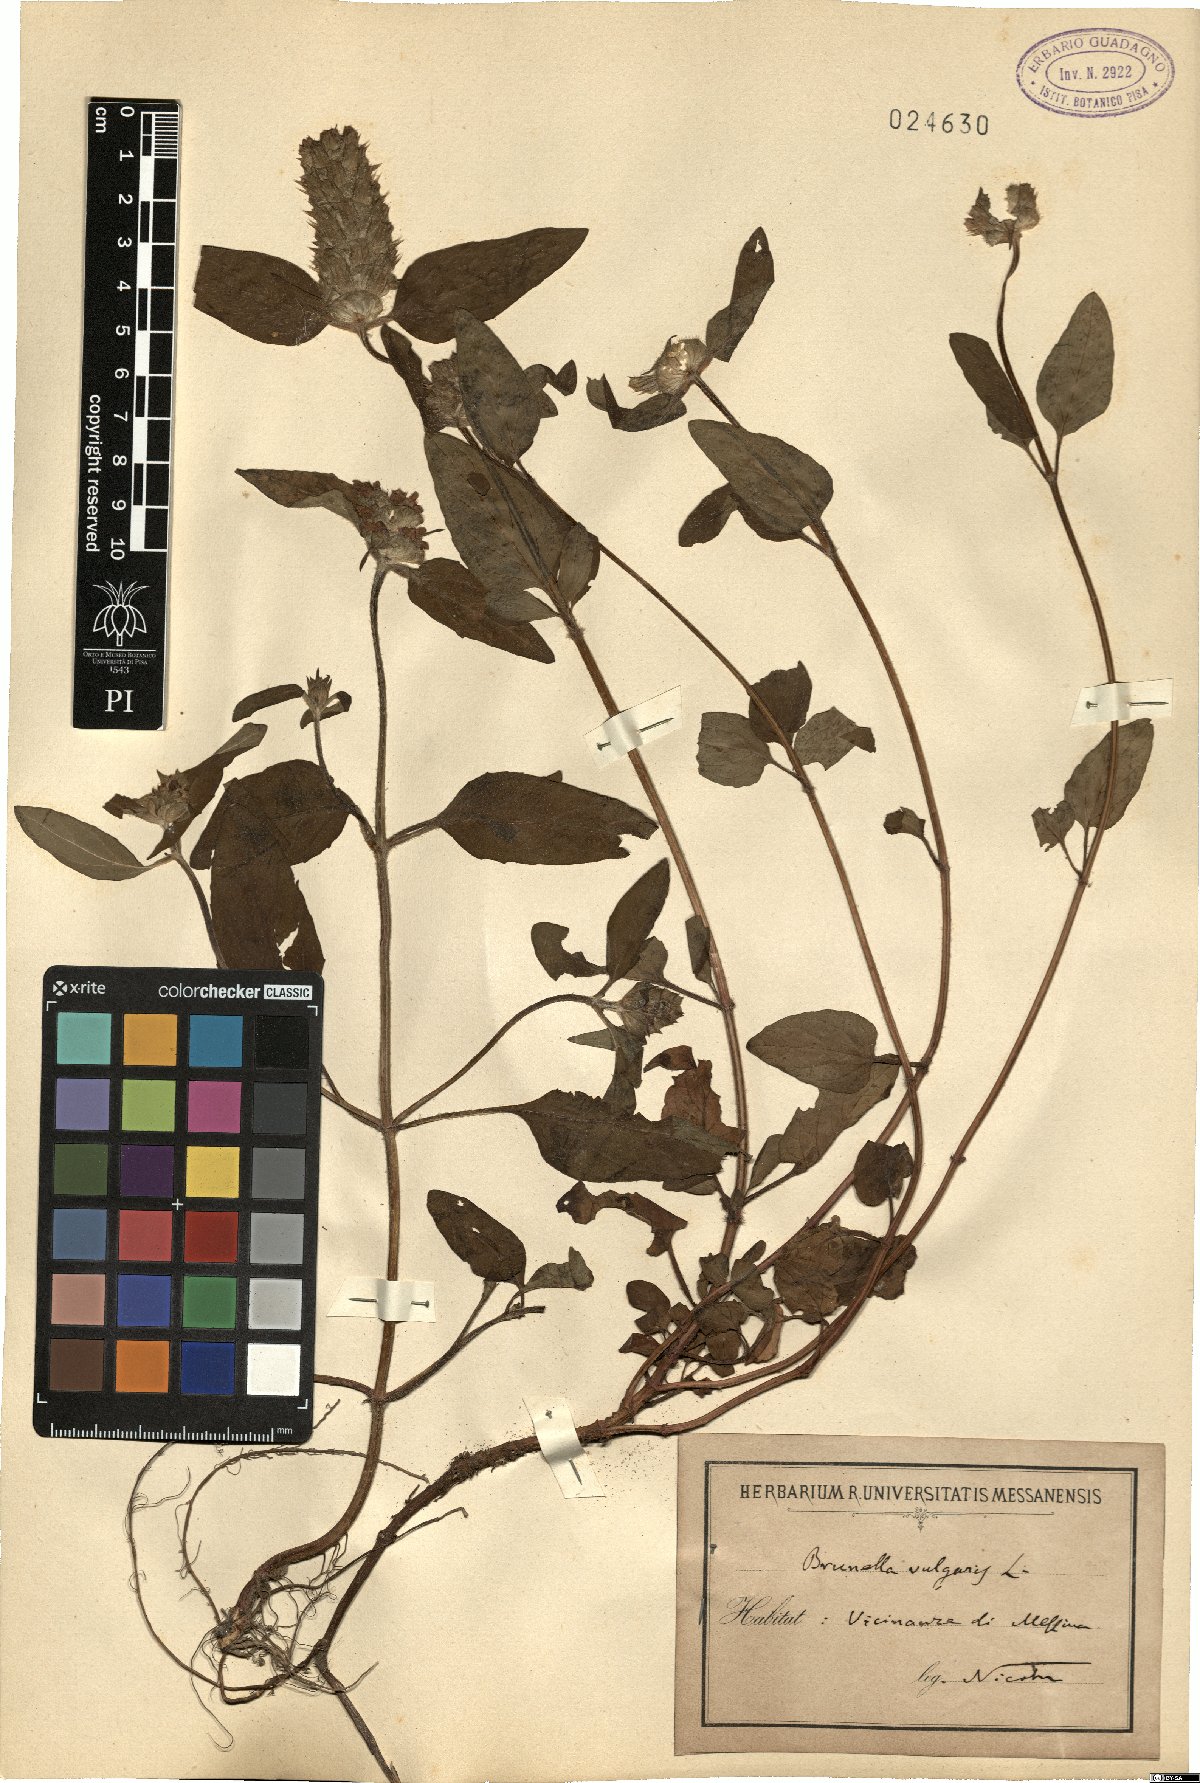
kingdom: Plantae
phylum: Tracheophyta
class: Magnoliopsida
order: Lamiales
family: Lamiaceae
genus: Prunella
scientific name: Prunella vulgaris
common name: Heal-all
